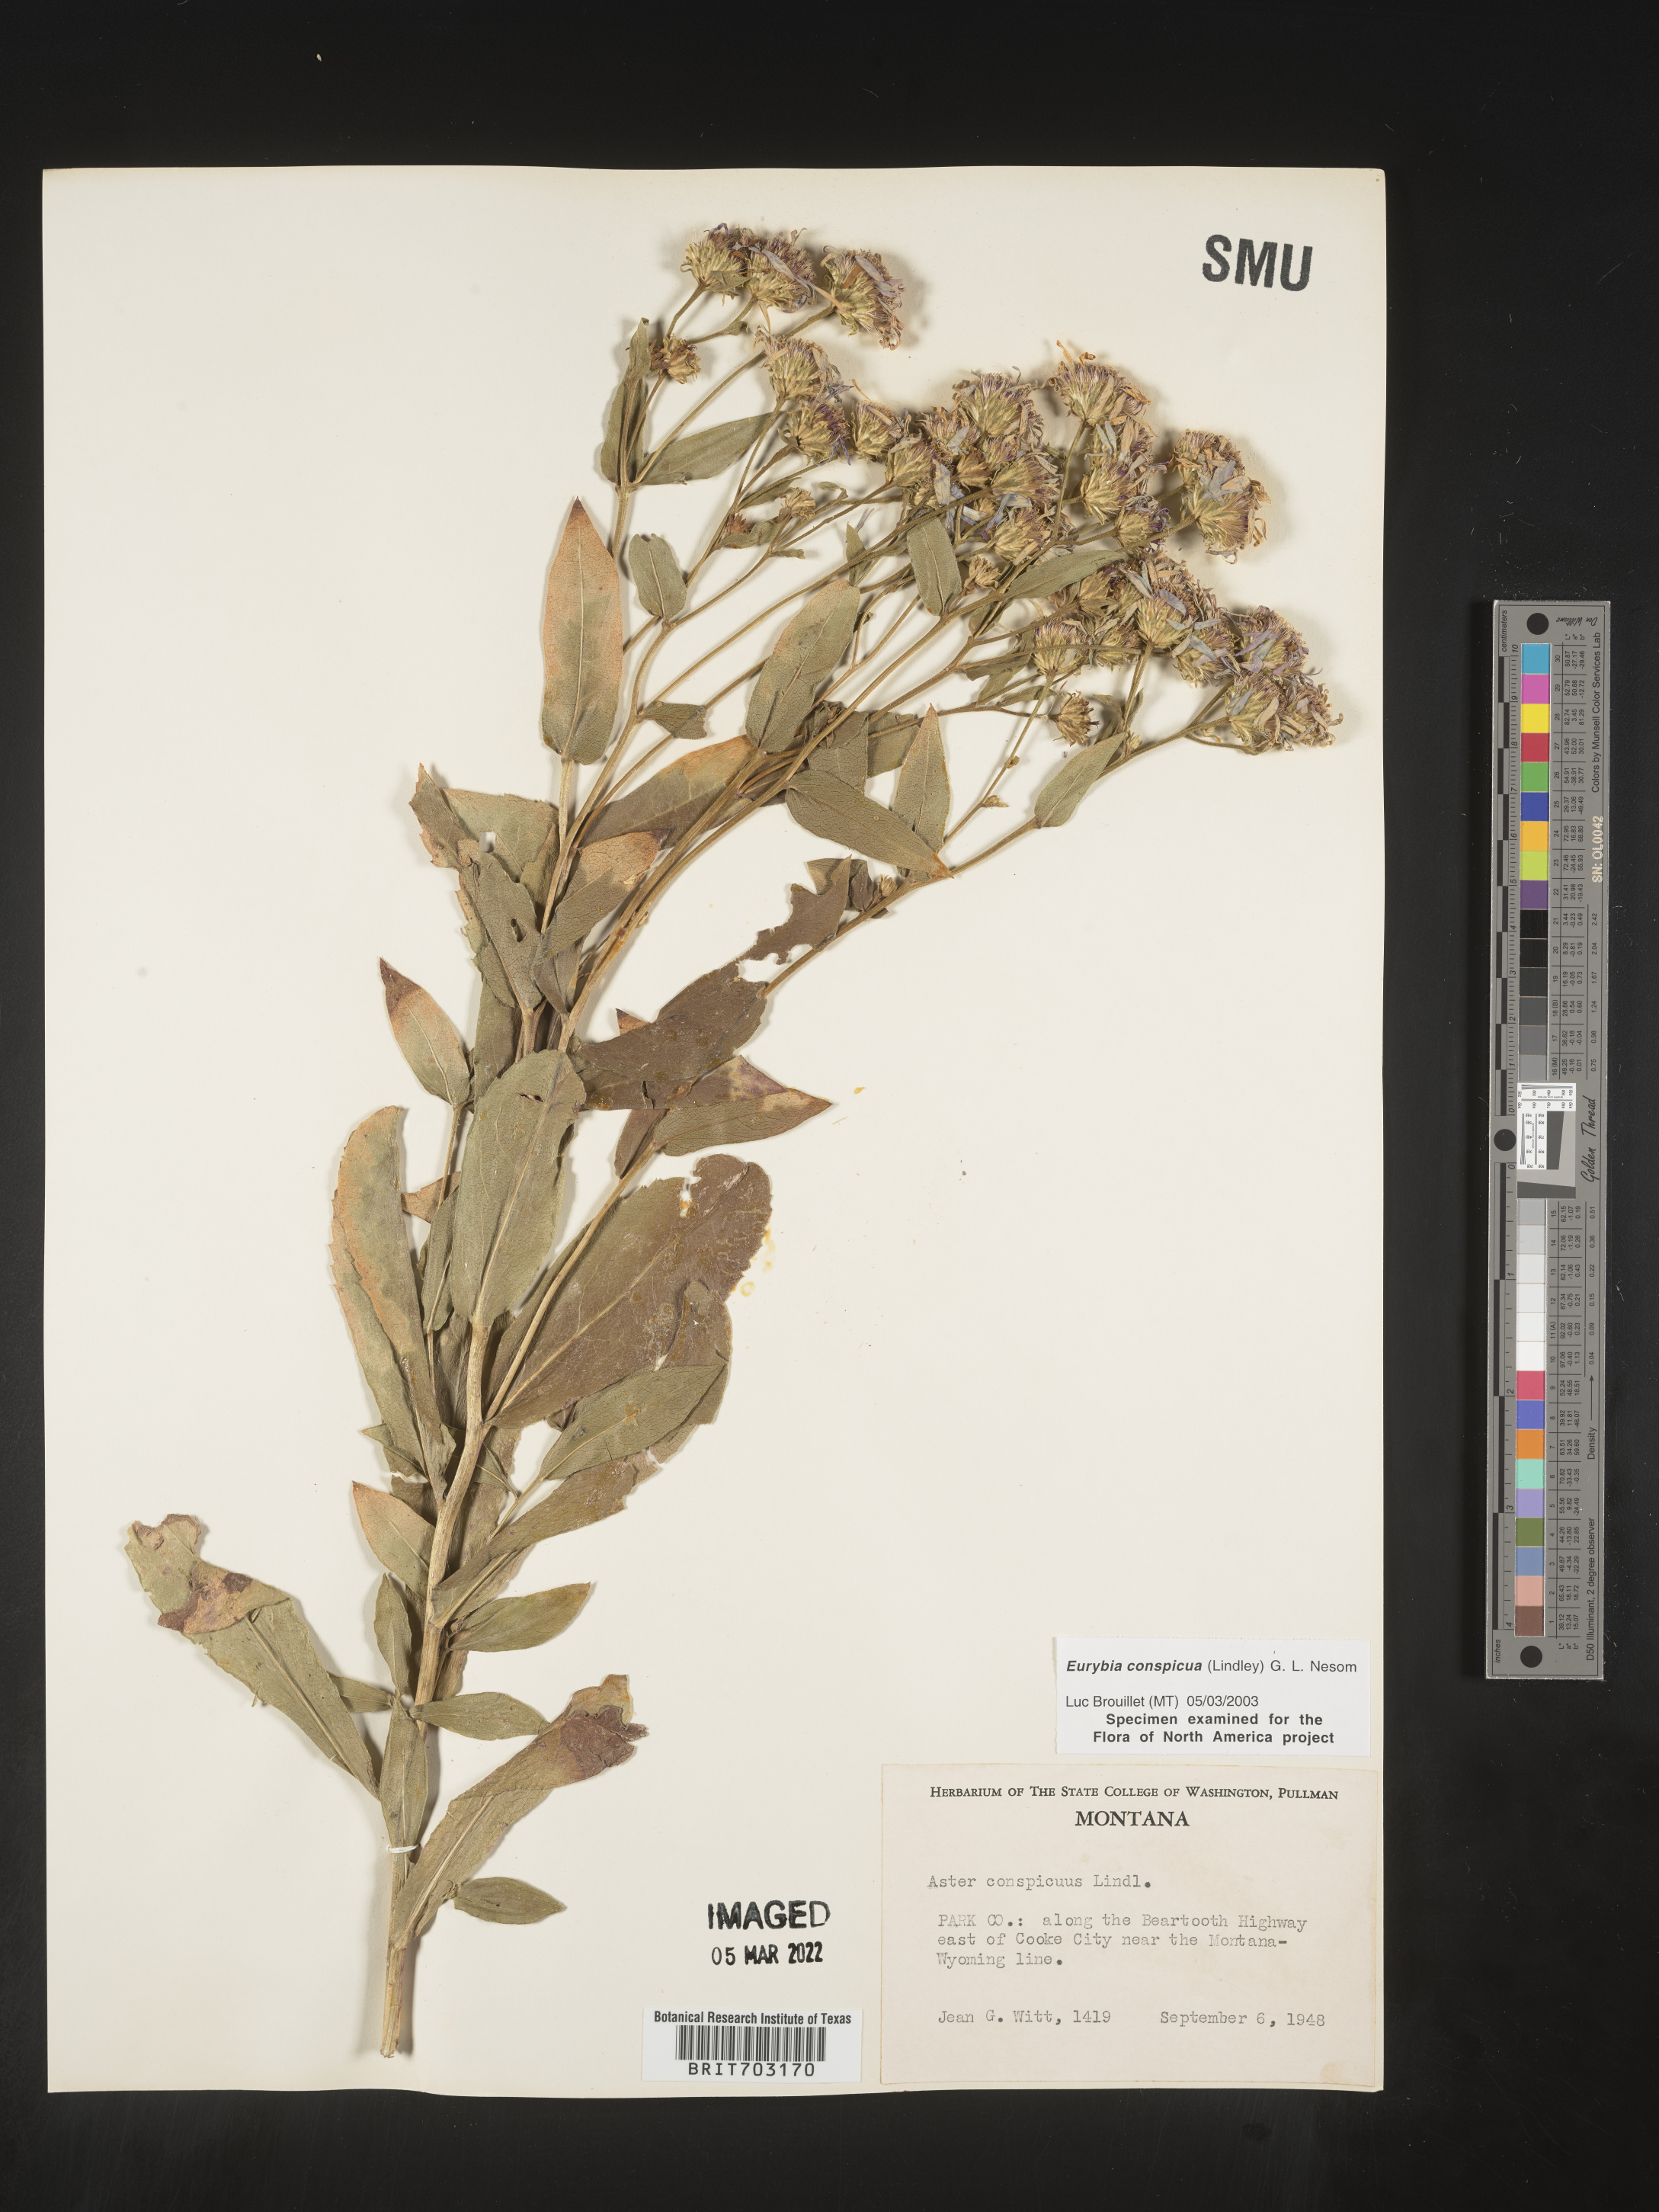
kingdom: Plantae
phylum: Tracheophyta
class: Magnoliopsida
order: Asterales
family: Asteraceae
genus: Eurybia
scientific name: Eurybia conspicua
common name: Showy aster
